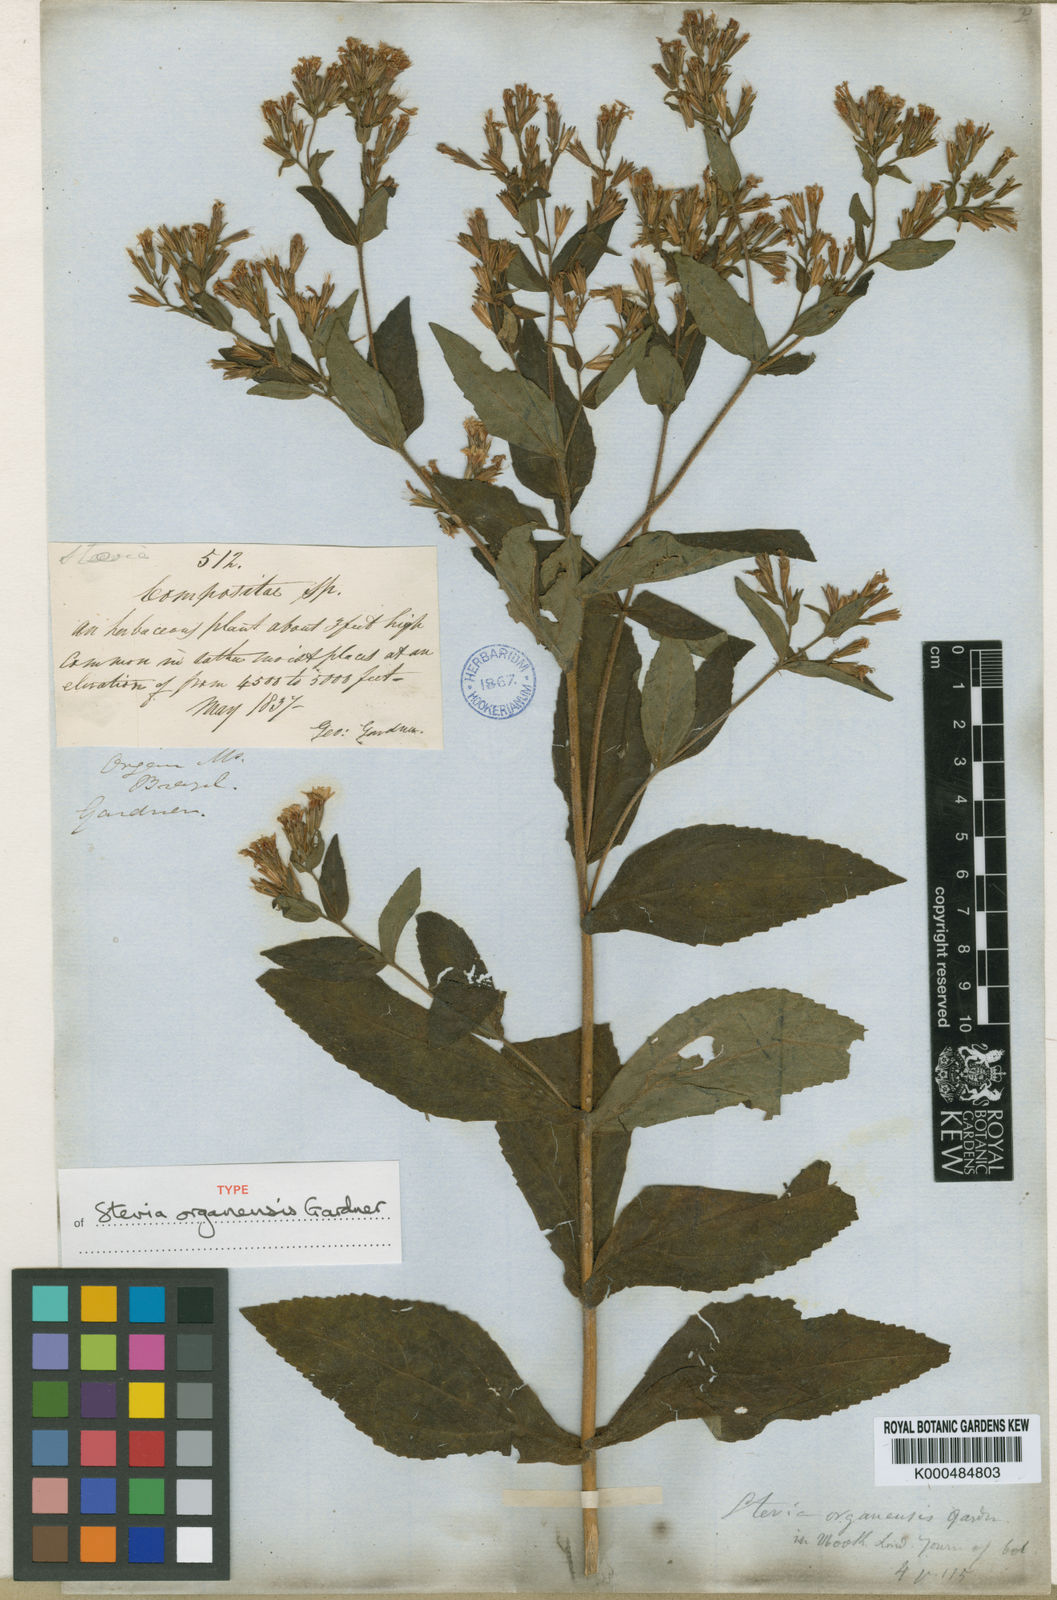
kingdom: Plantae
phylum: Tracheophyta
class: Magnoliopsida
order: Asterales
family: Asteraceae
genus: Stevia
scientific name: Stevia organensis
